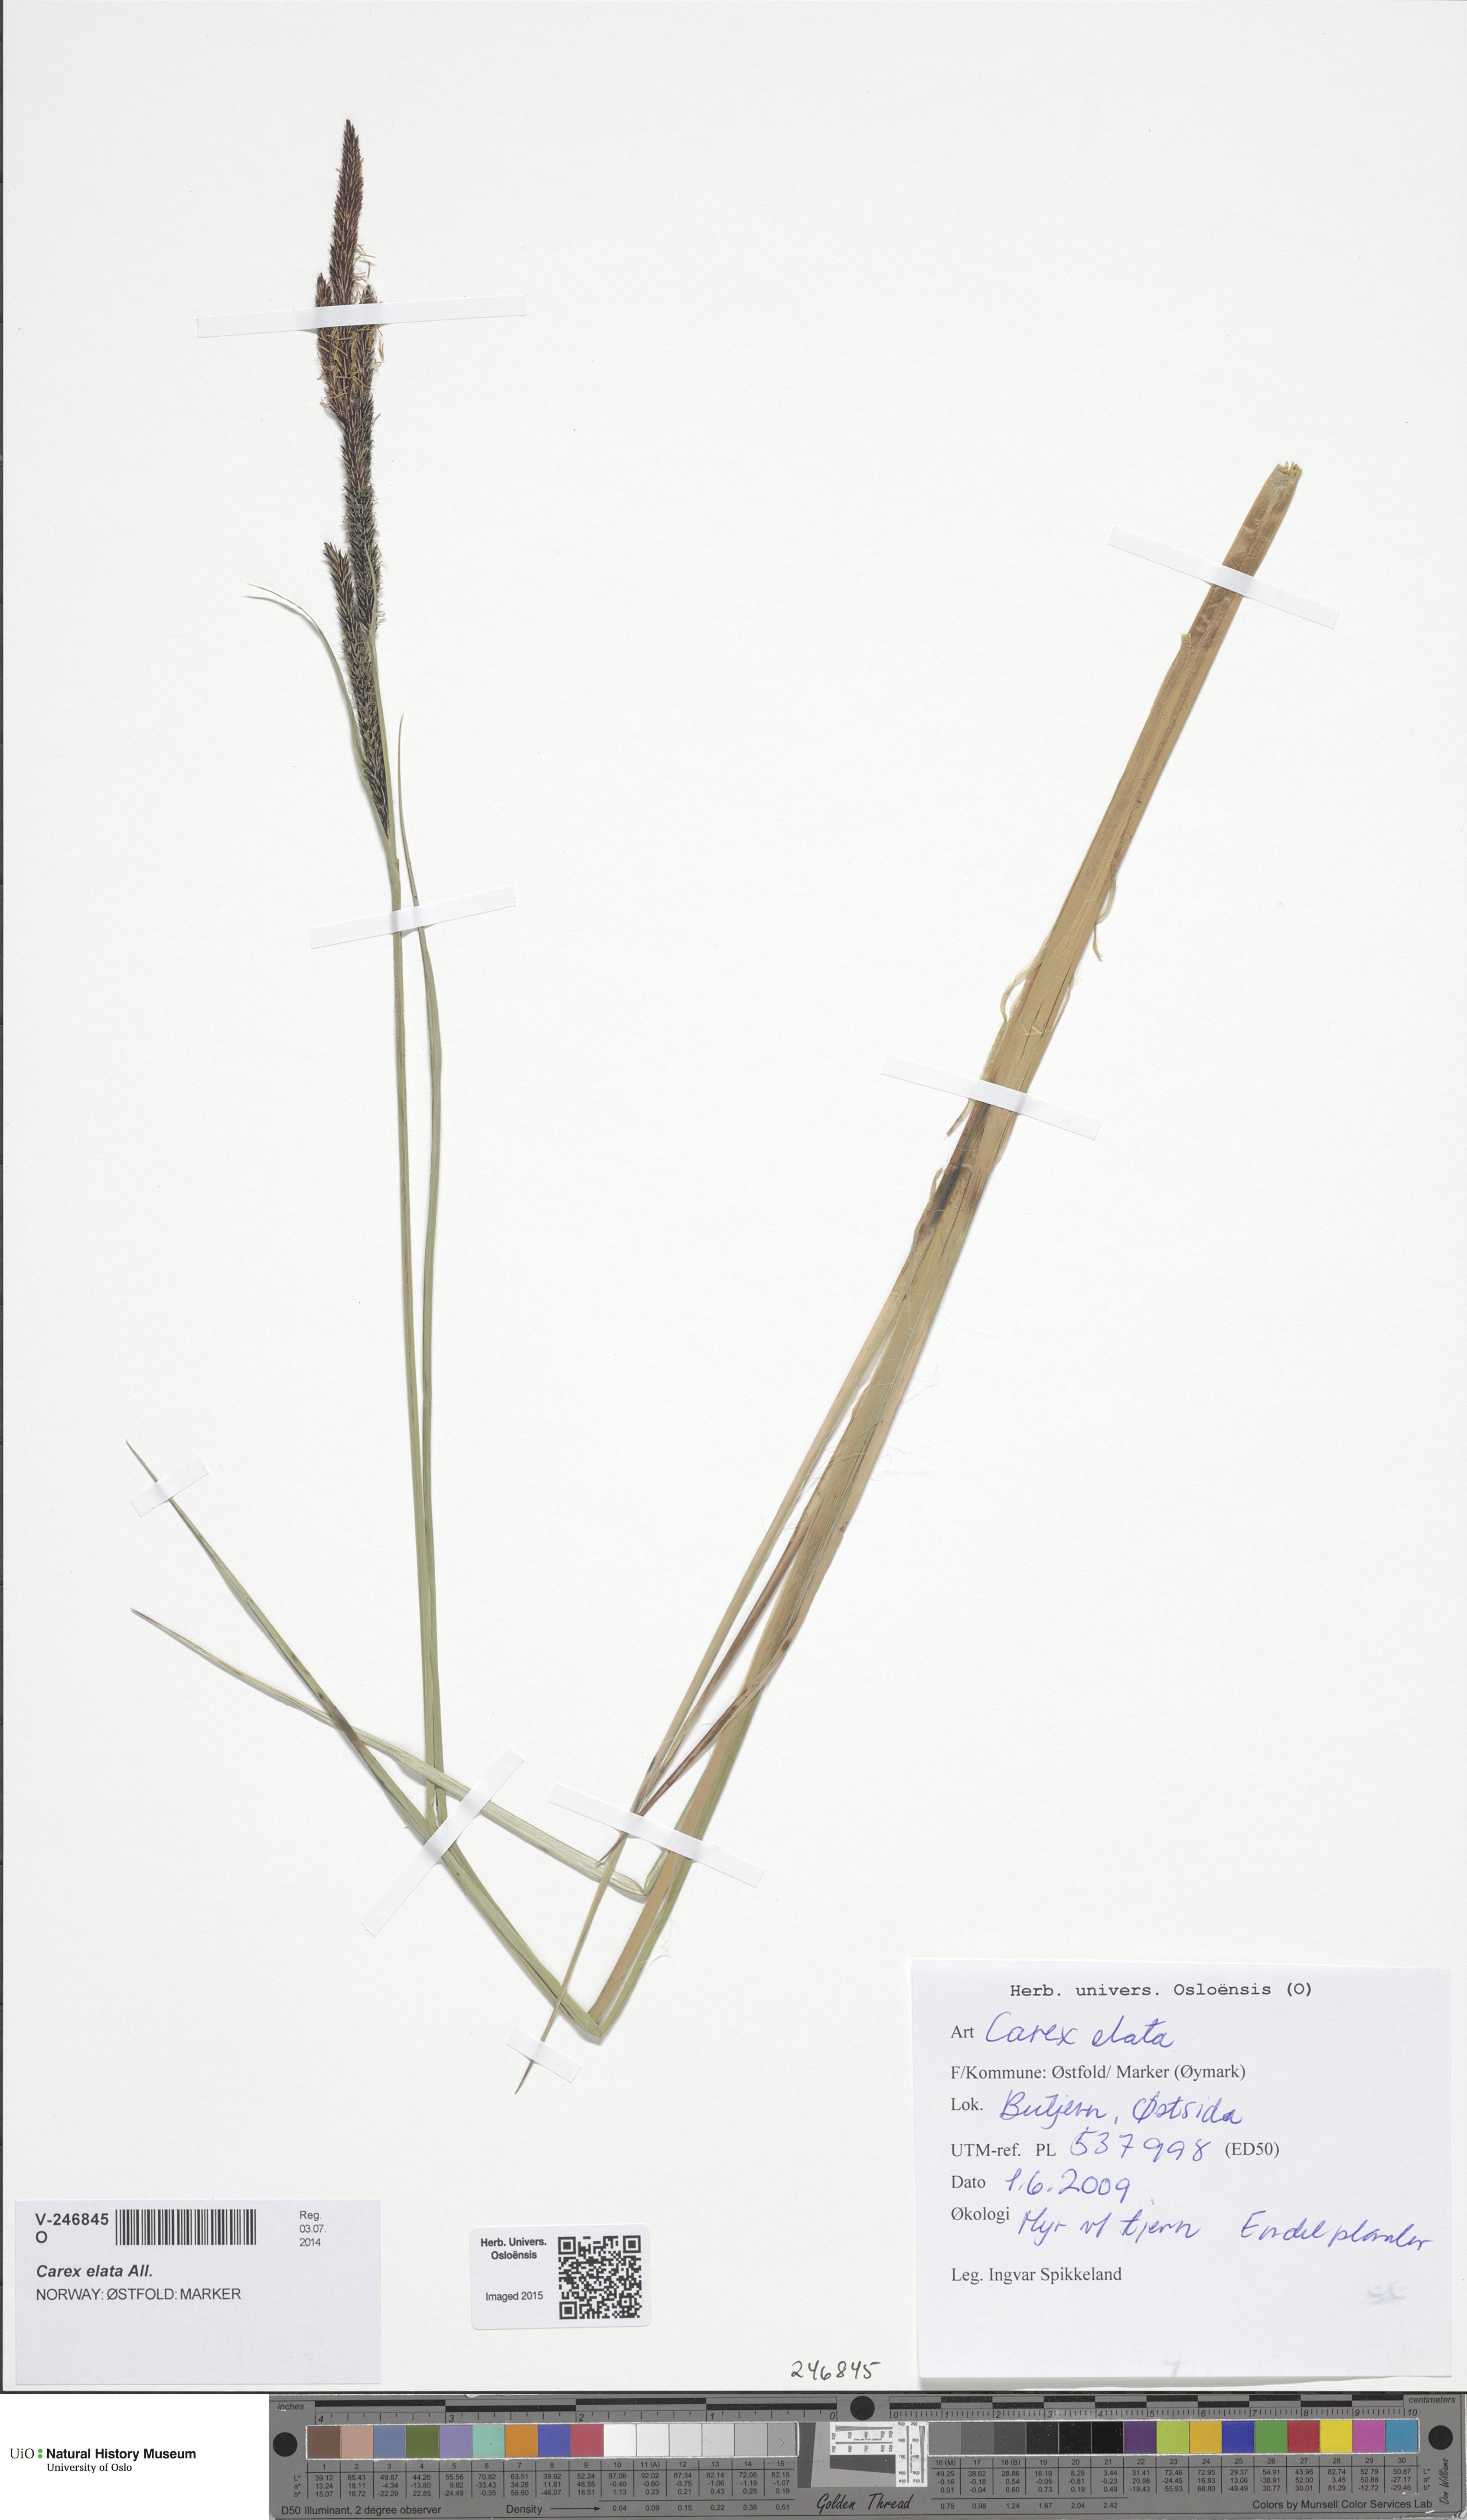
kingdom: Plantae
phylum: Tracheophyta
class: Liliopsida
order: Poales
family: Cyperaceae
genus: Carex
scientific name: Carex elata
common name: Tufted sedge
